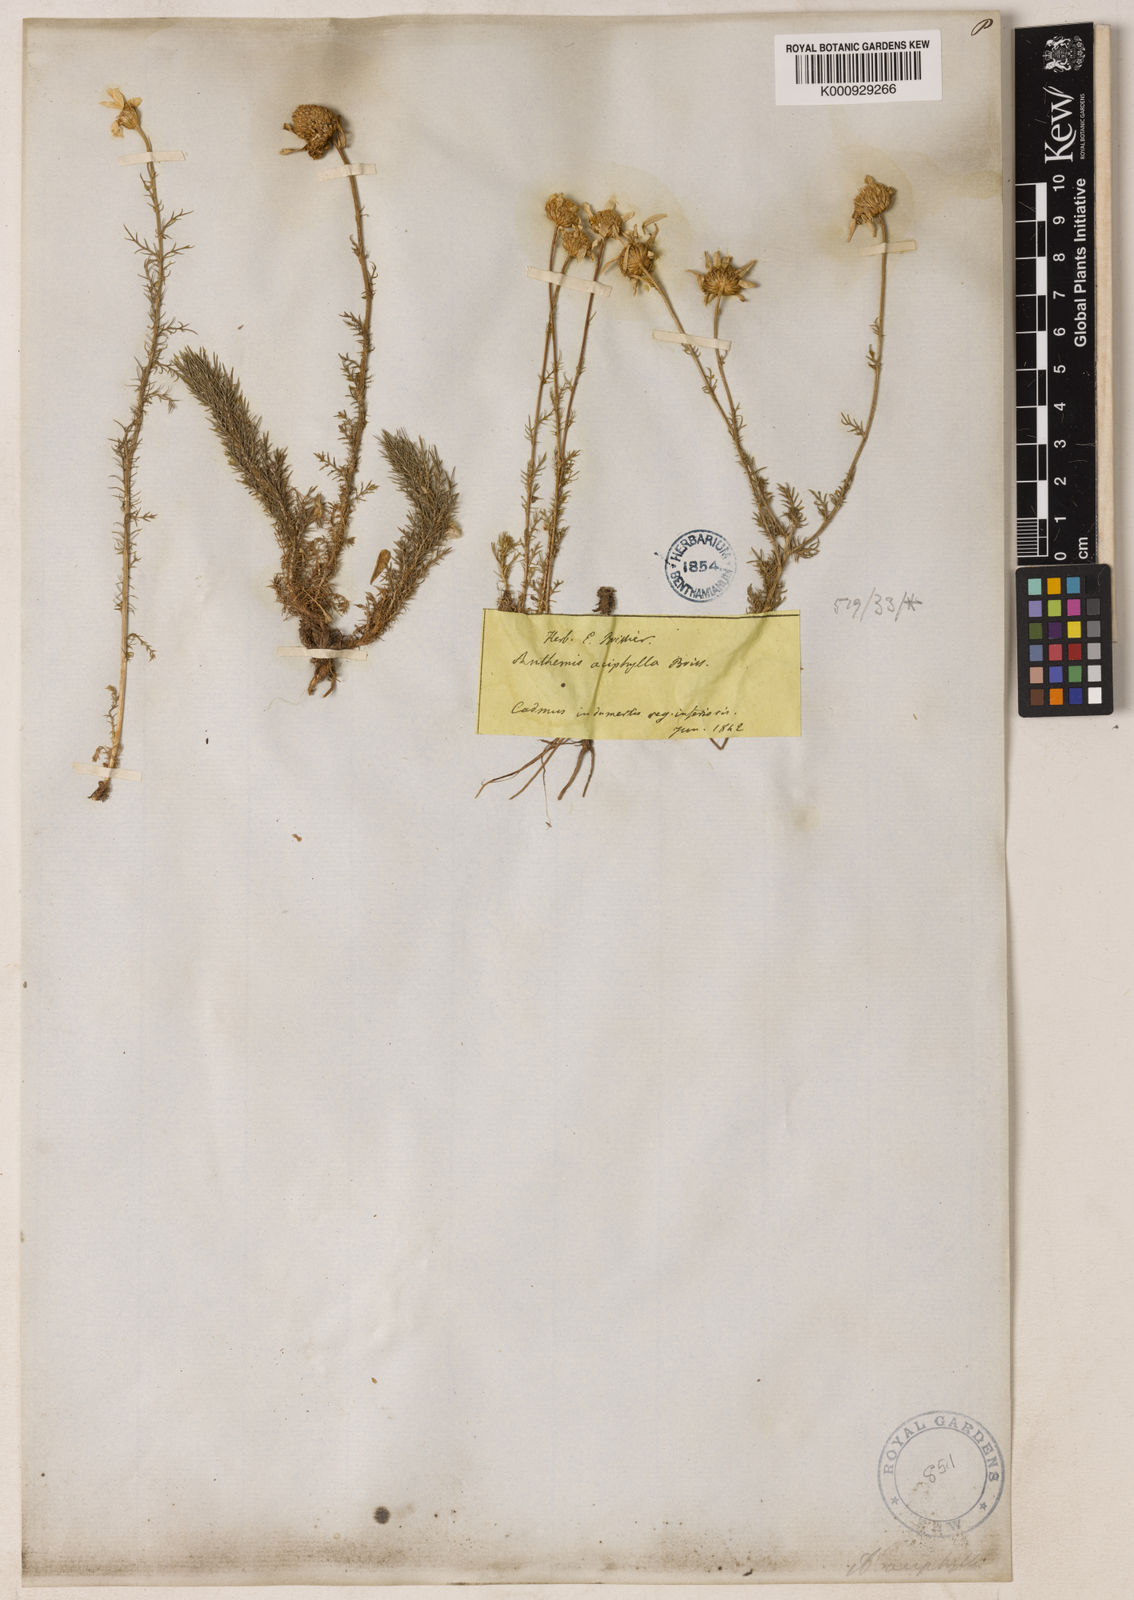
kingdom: Plantae
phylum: Tracheophyta
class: Magnoliopsida
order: Asterales
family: Asteraceae
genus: Anthemis
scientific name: Anthemis aciphylla
